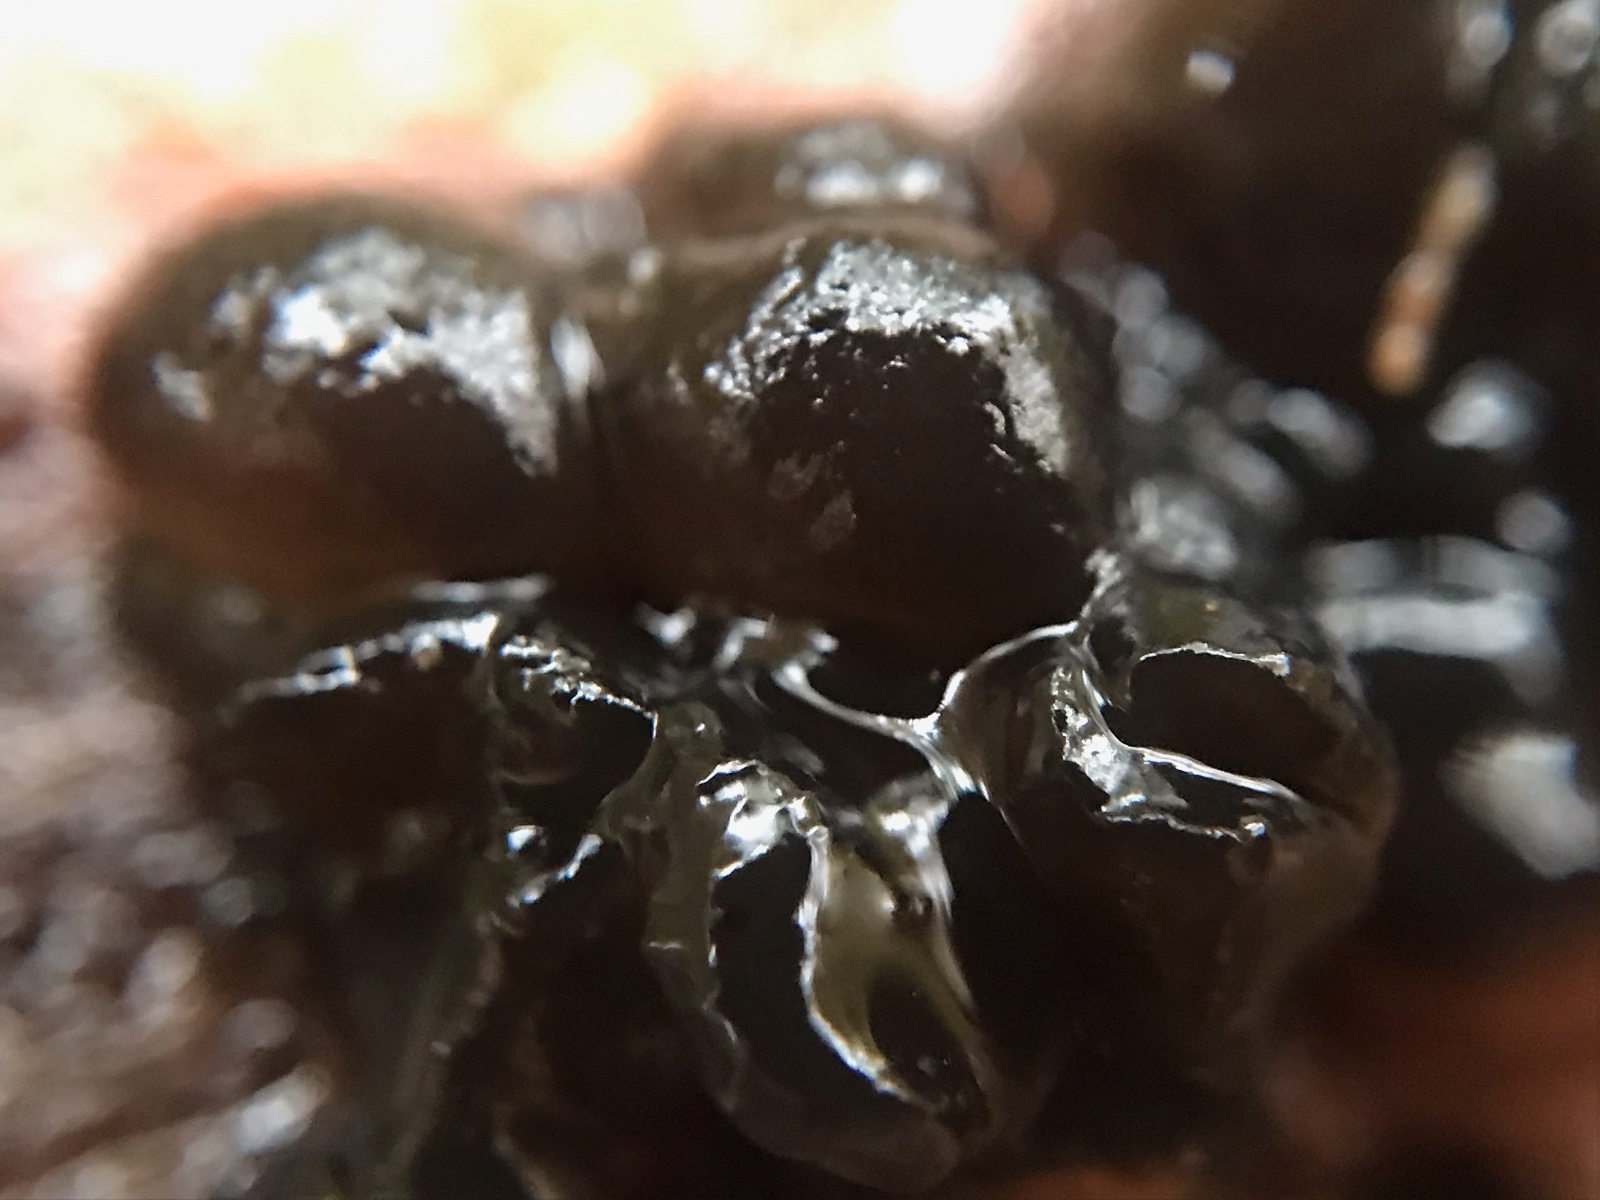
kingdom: Fungi
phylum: Basidiomycota
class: Agaricomycetes
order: Auriculariales
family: Auriculariaceae
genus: Exidia
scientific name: Exidia nigricans
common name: almindelig bævretop
